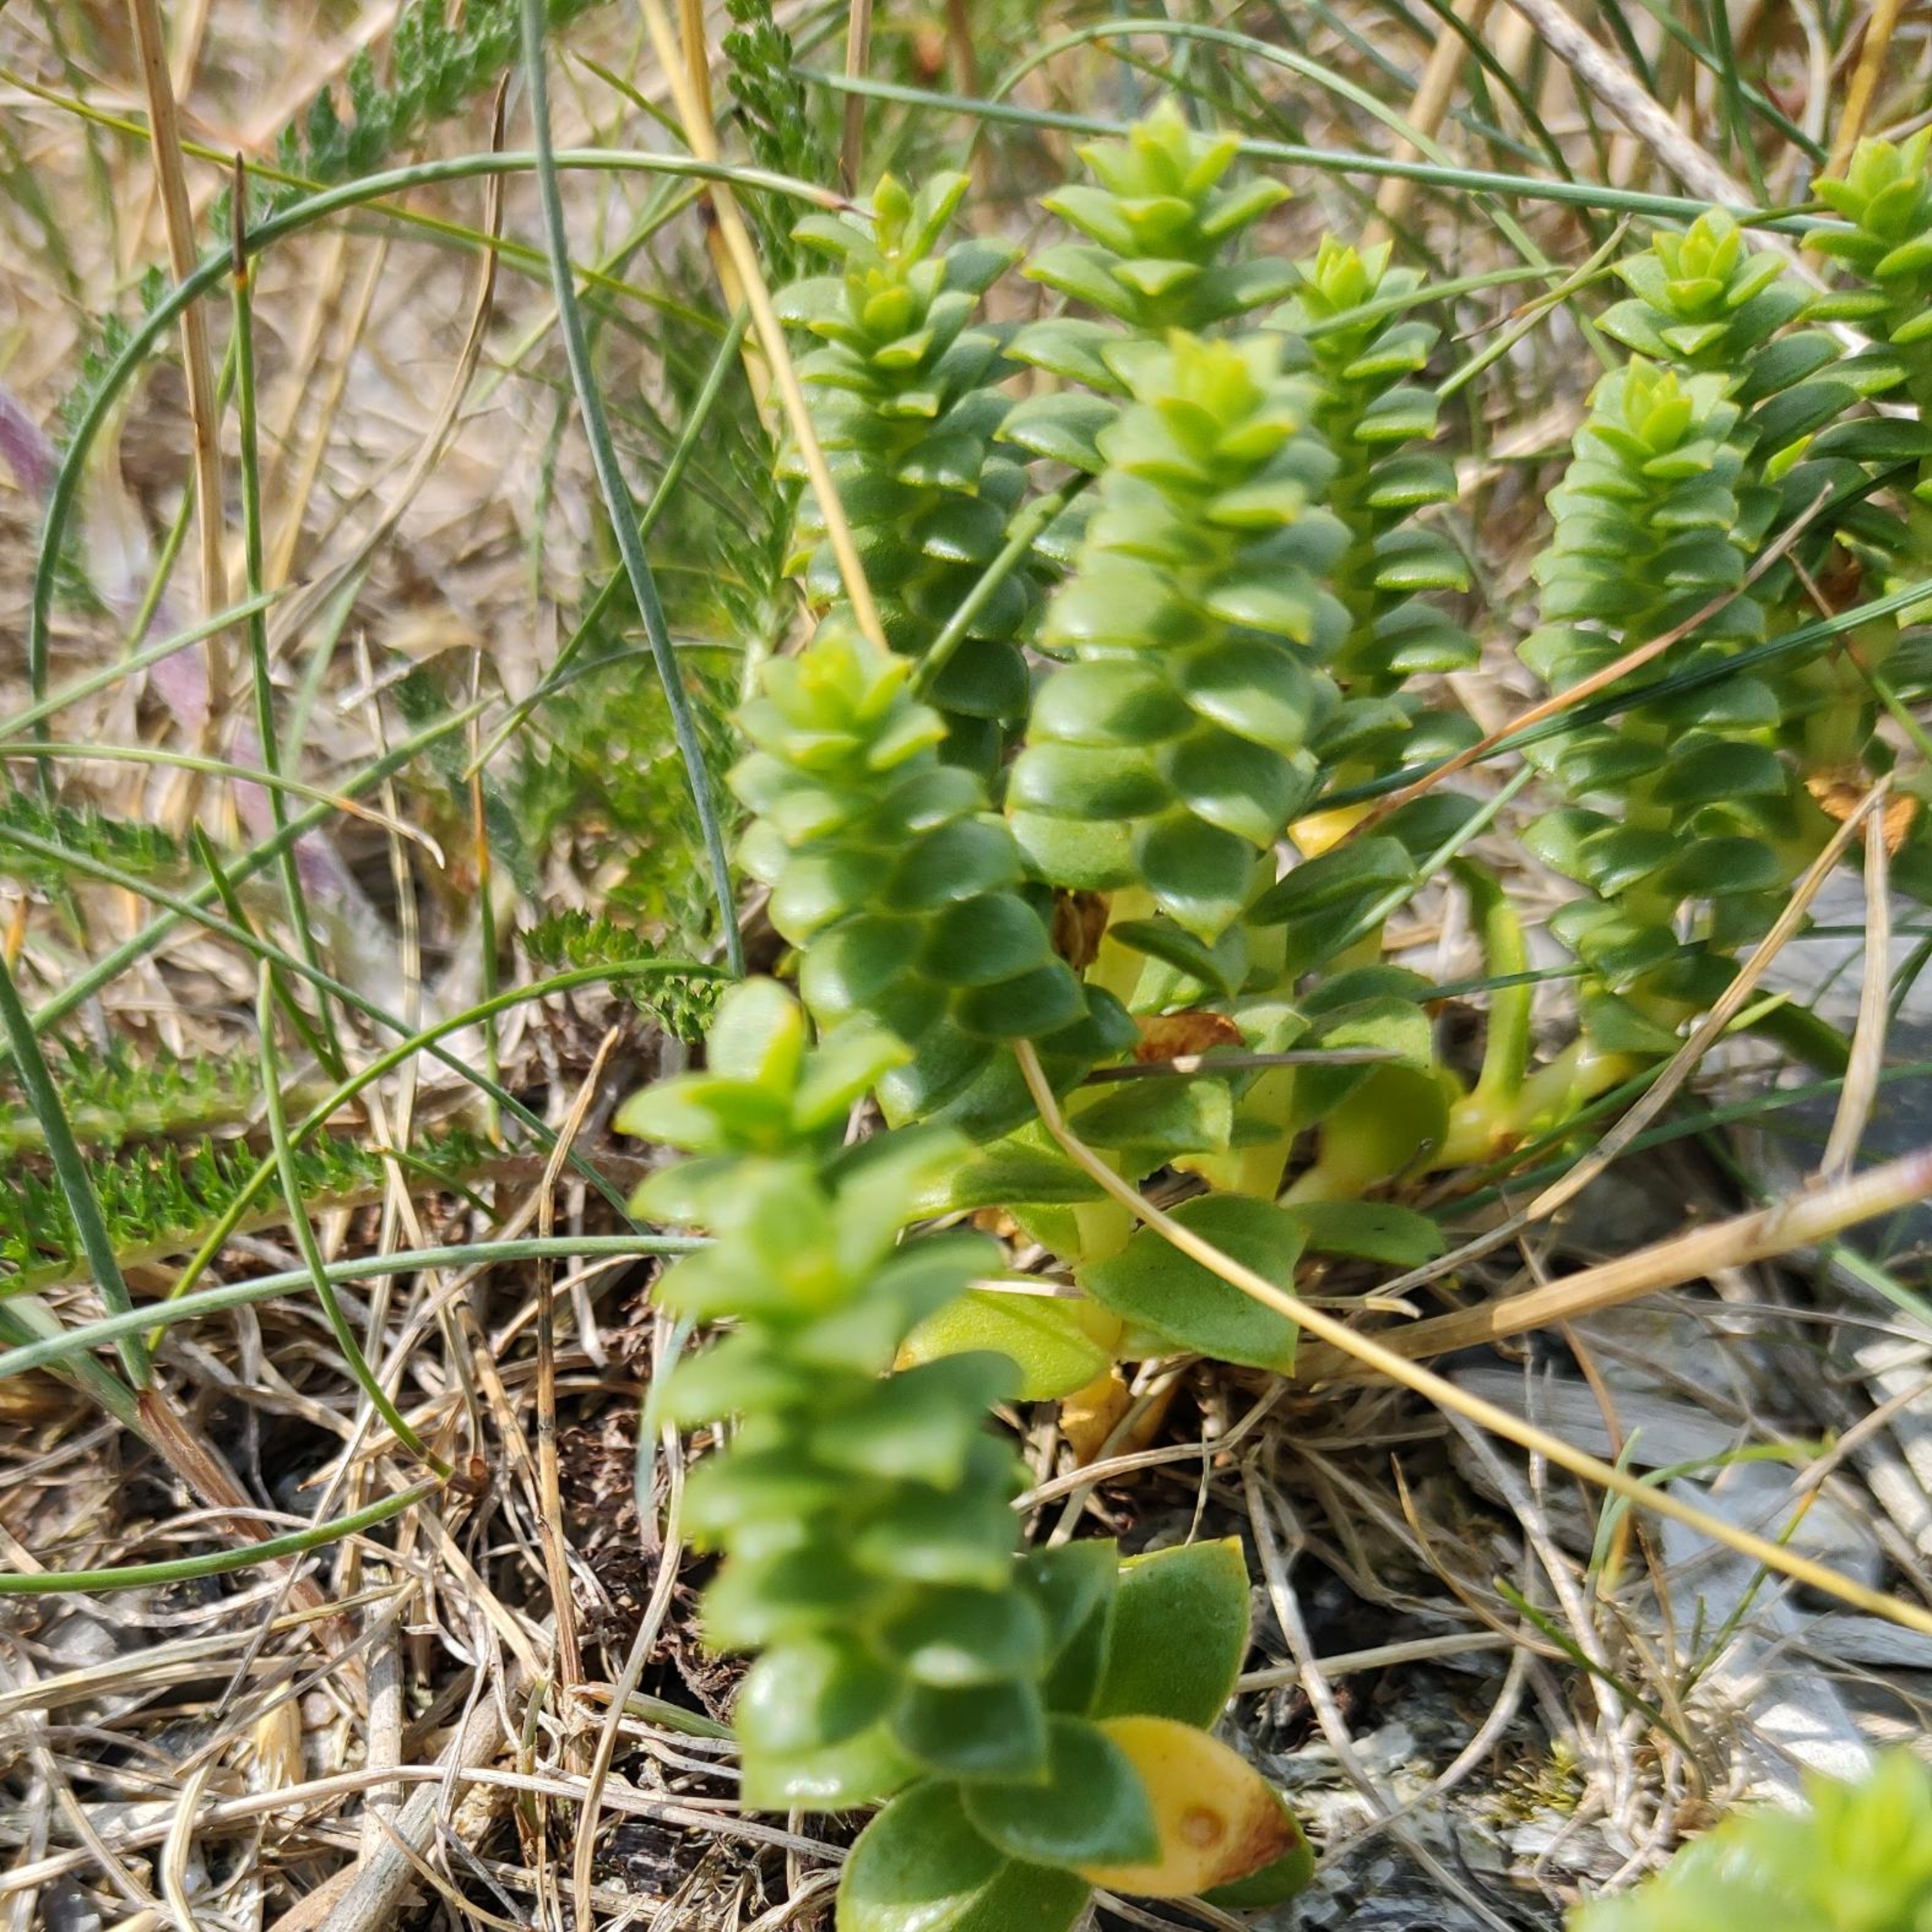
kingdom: Plantae
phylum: Tracheophyta
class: Magnoliopsida
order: Caryophyllales
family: Caryophyllaceae
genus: Honckenya
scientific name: Honckenya peploides
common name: Strandarve
